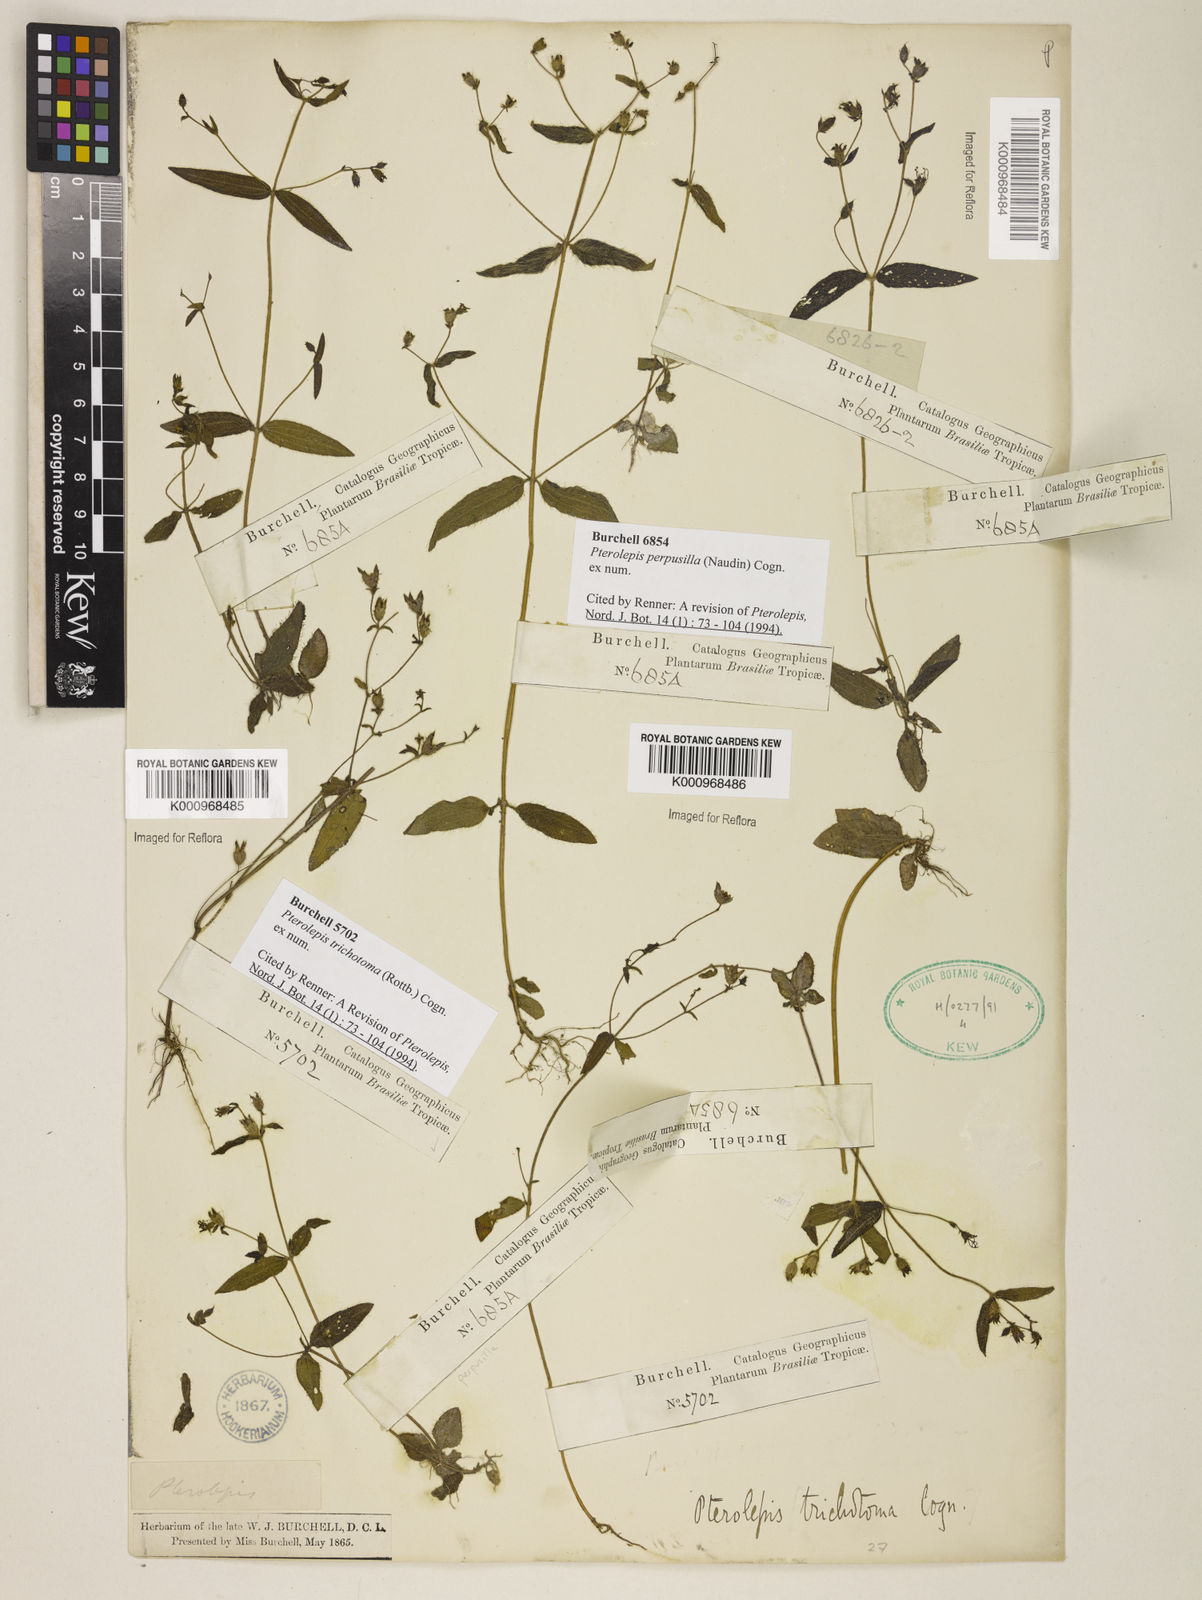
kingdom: Plantae
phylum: Tracheophyta
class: Magnoliopsida
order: Myrtales
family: Melastomataceae
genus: Pterolepis
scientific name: Pterolepis trichotoma
